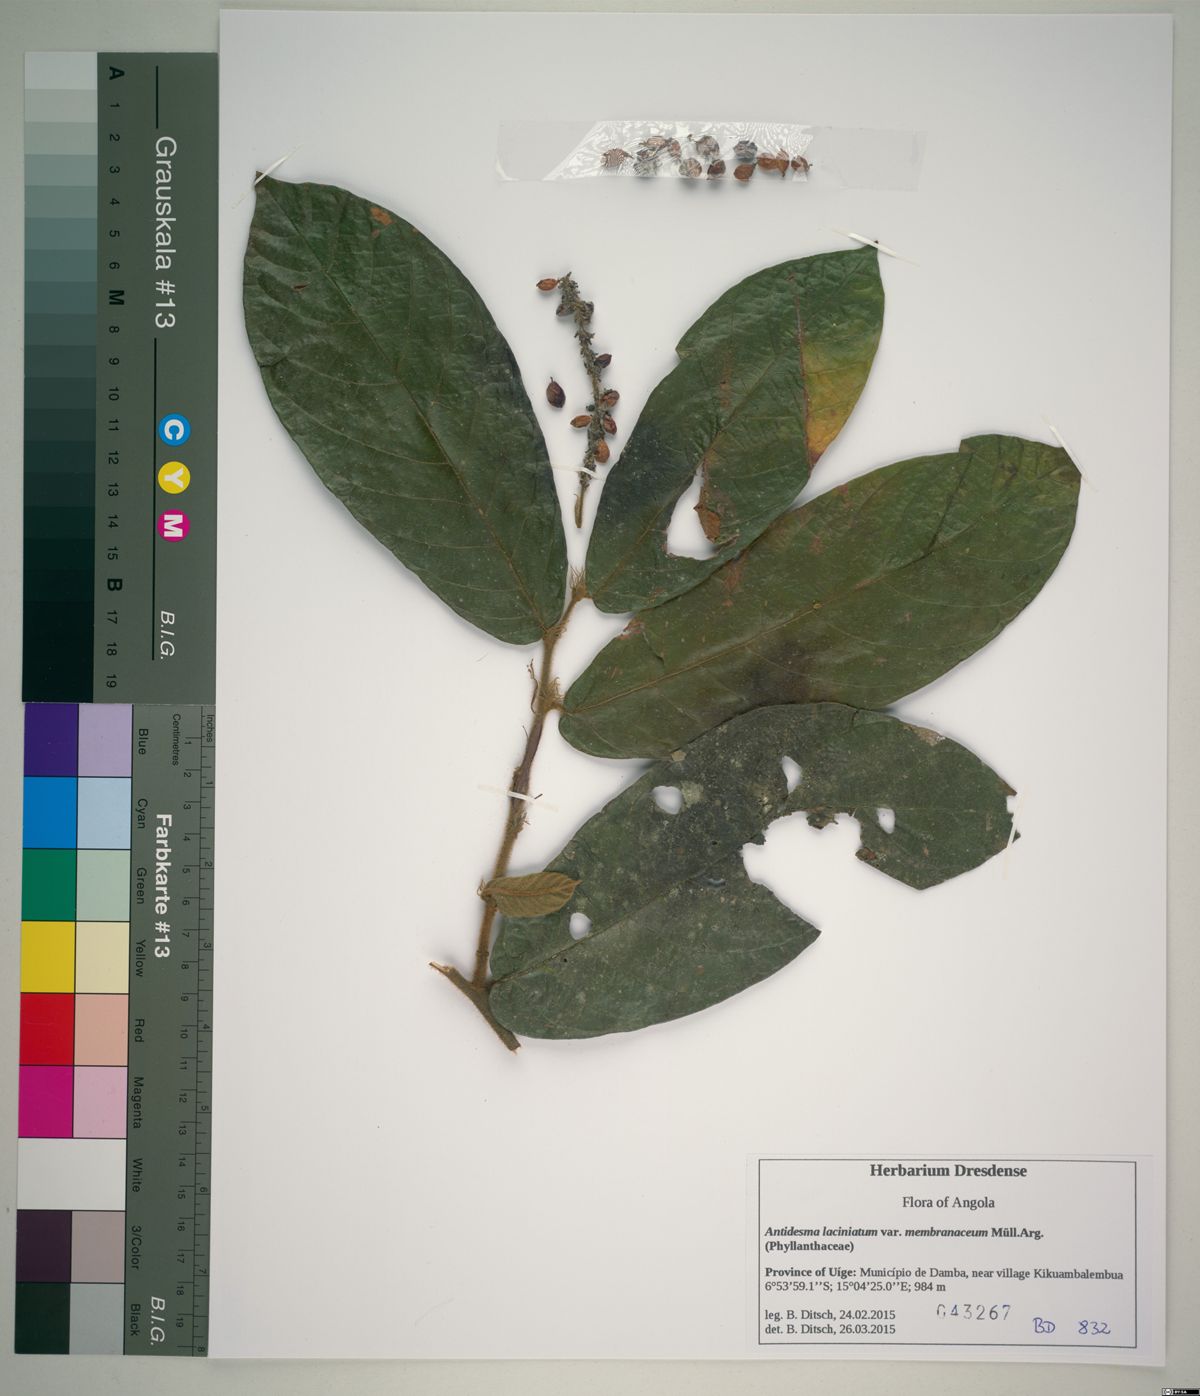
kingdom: Plantae
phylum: Tracheophyta
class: Magnoliopsida
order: Malpighiales
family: Phyllanthaceae
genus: Antidesma
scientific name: Antidesma laciniatum
